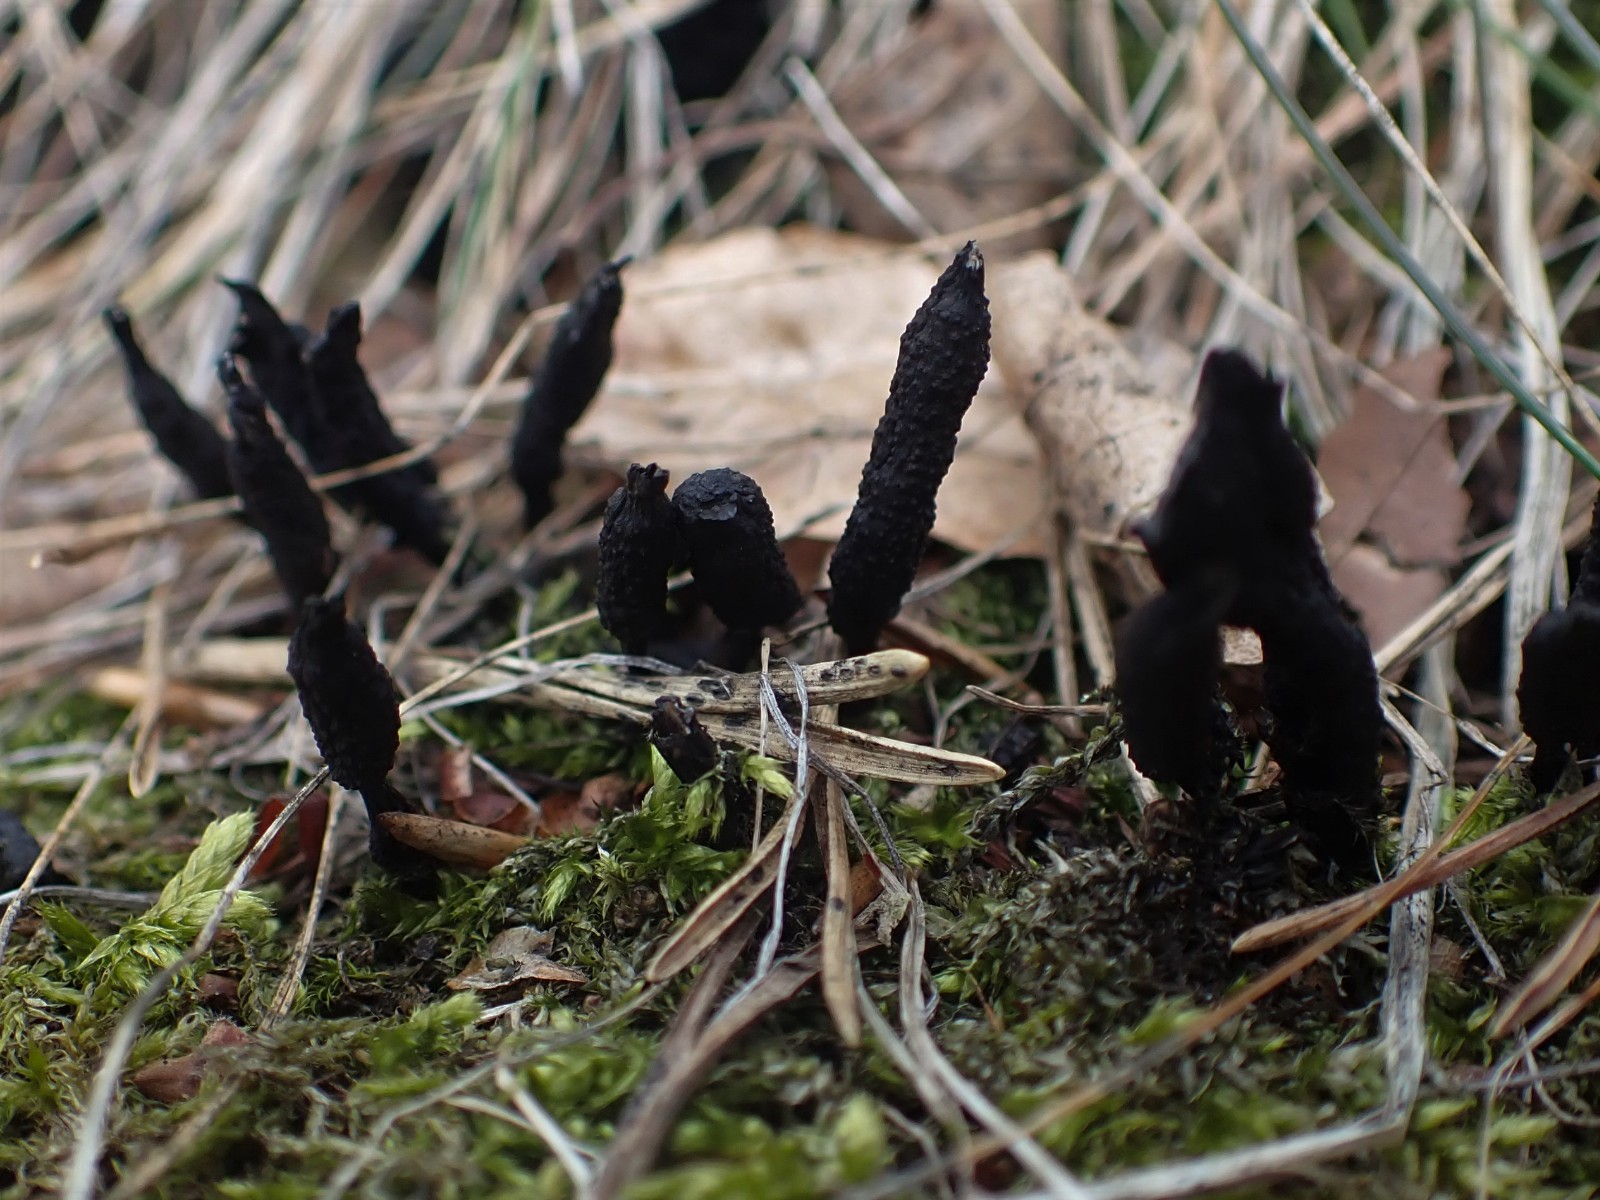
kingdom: Fungi
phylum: Ascomycota
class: Sordariomycetes
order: Xylariales
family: Xylariaceae
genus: Xylaria
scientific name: Xylaria hypoxylon
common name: grenet stødsvamp
